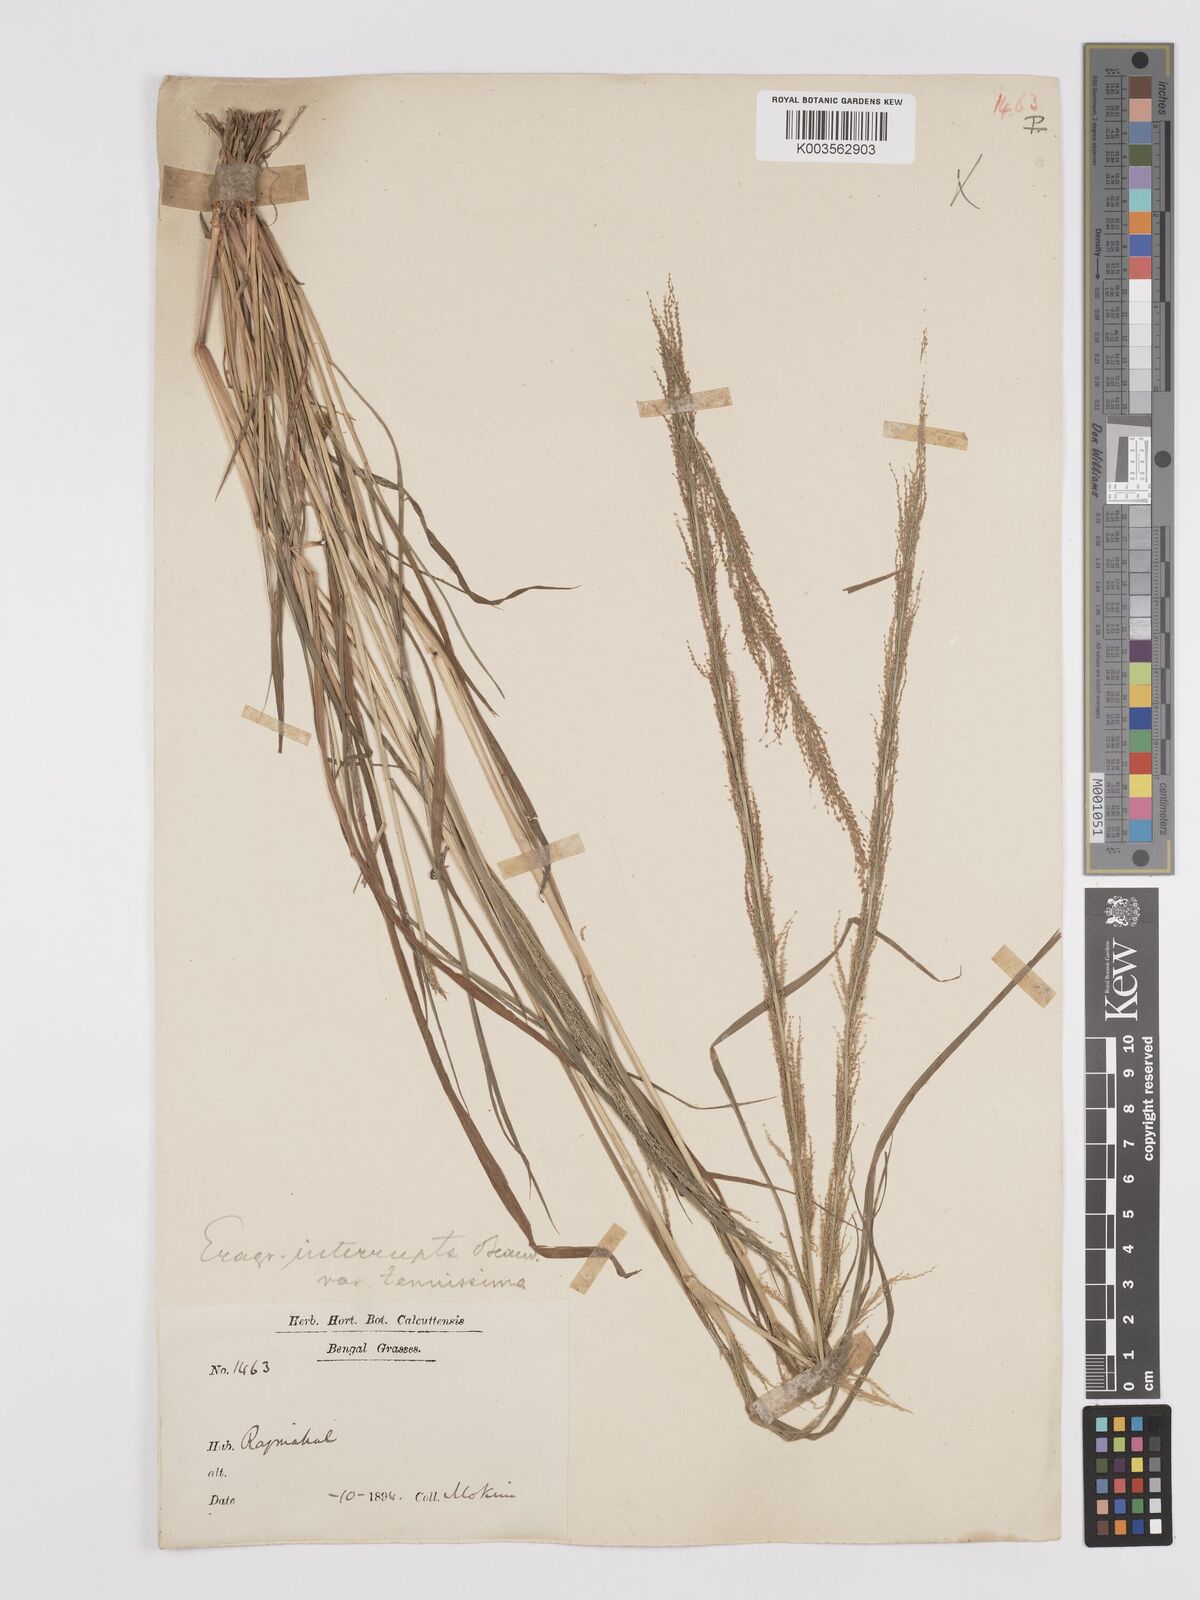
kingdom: Plantae
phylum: Tracheophyta
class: Liliopsida
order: Poales
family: Poaceae
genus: Eragrostis
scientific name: Eragrostis japonica
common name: Pond lovegrass
